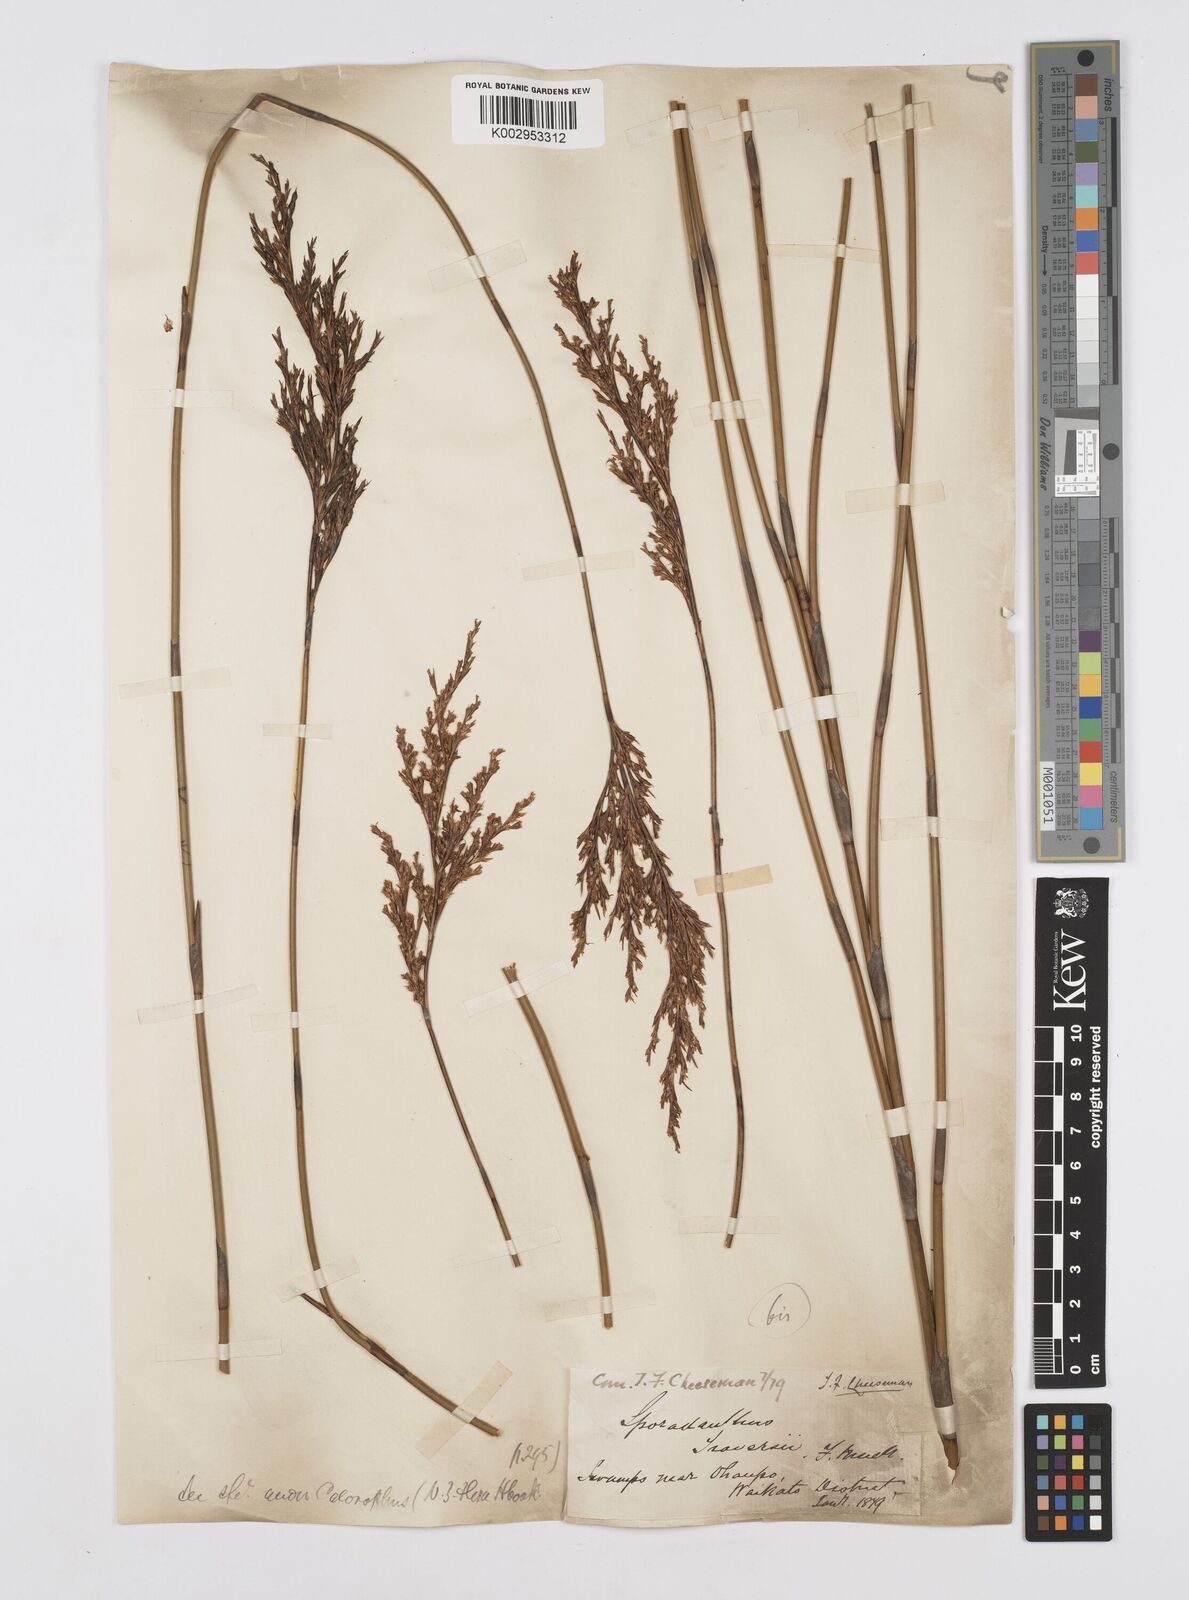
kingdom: Plantae
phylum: Tracheophyta
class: Liliopsida
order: Poales
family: Restionaceae
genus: Sporadanthus
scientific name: Sporadanthus traversii
